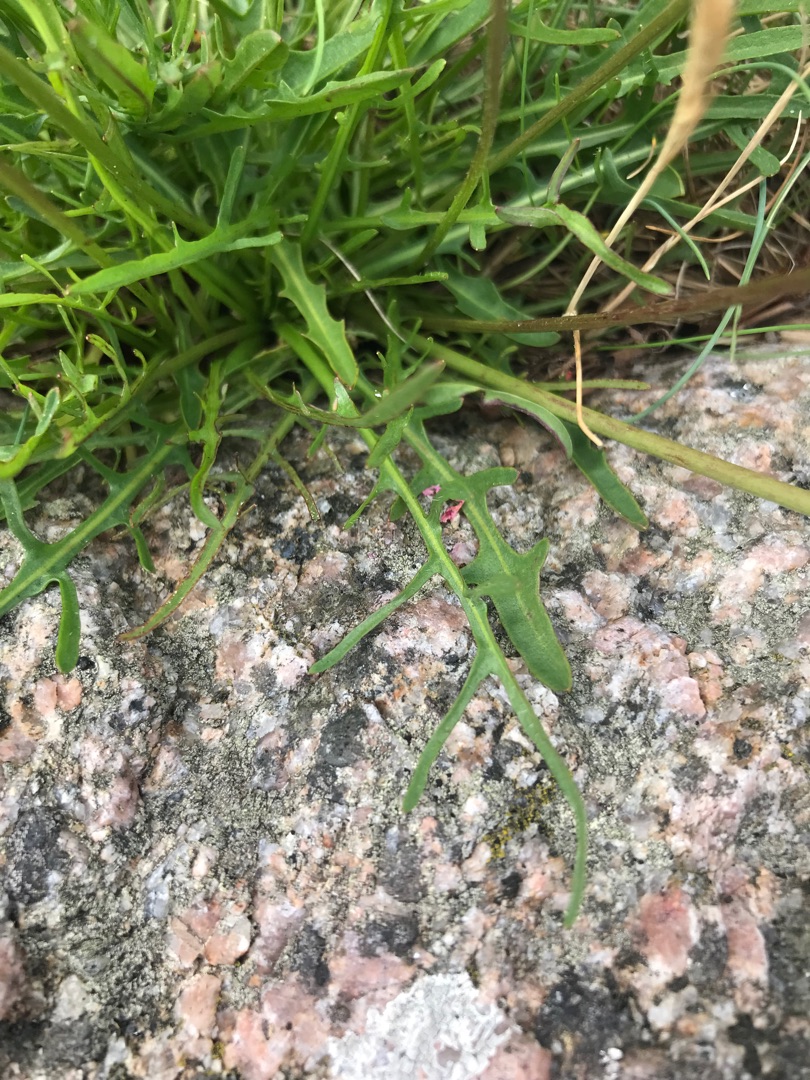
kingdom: Plantae
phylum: Tracheophyta
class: Magnoliopsida
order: Asterales
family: Asteraceae
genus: Scorzoneroides
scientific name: Scorzoneroides autumnalis
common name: Høst-borst
